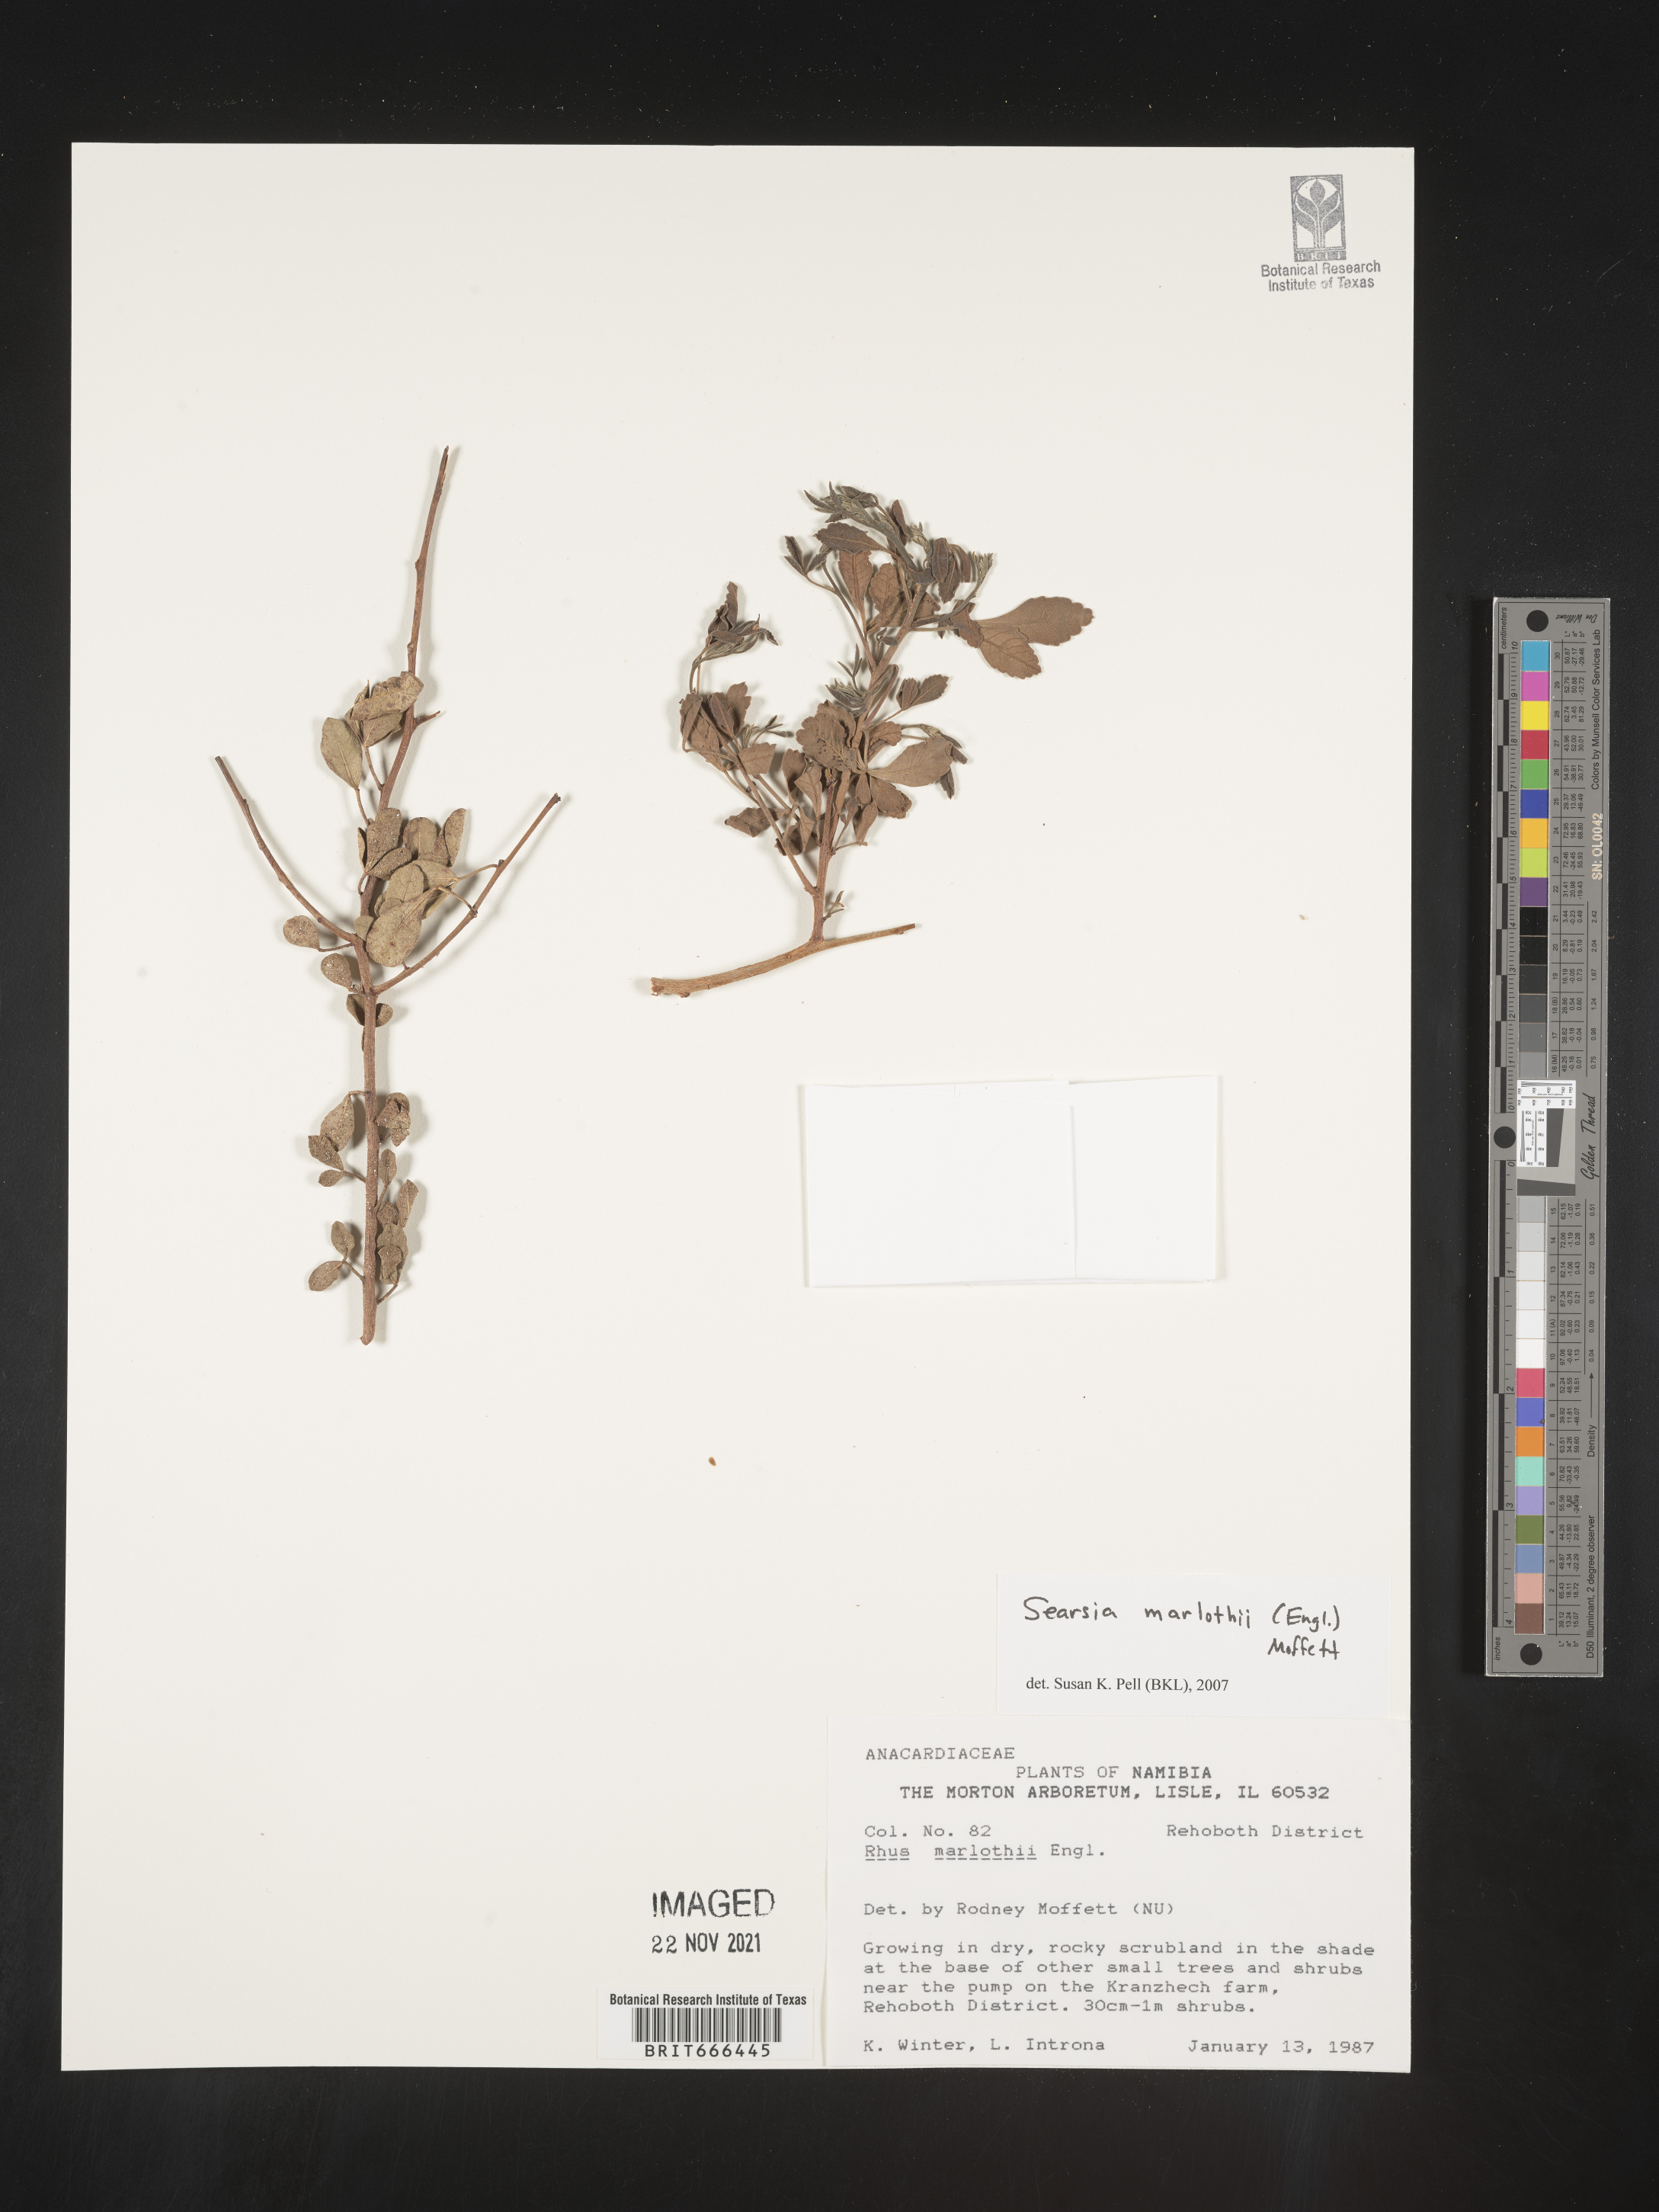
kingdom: Plantae
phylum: Tracheophyta
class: Magnoliopsida
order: Sapindales
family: Anacardiaceae
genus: Searsia
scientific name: Searsia
